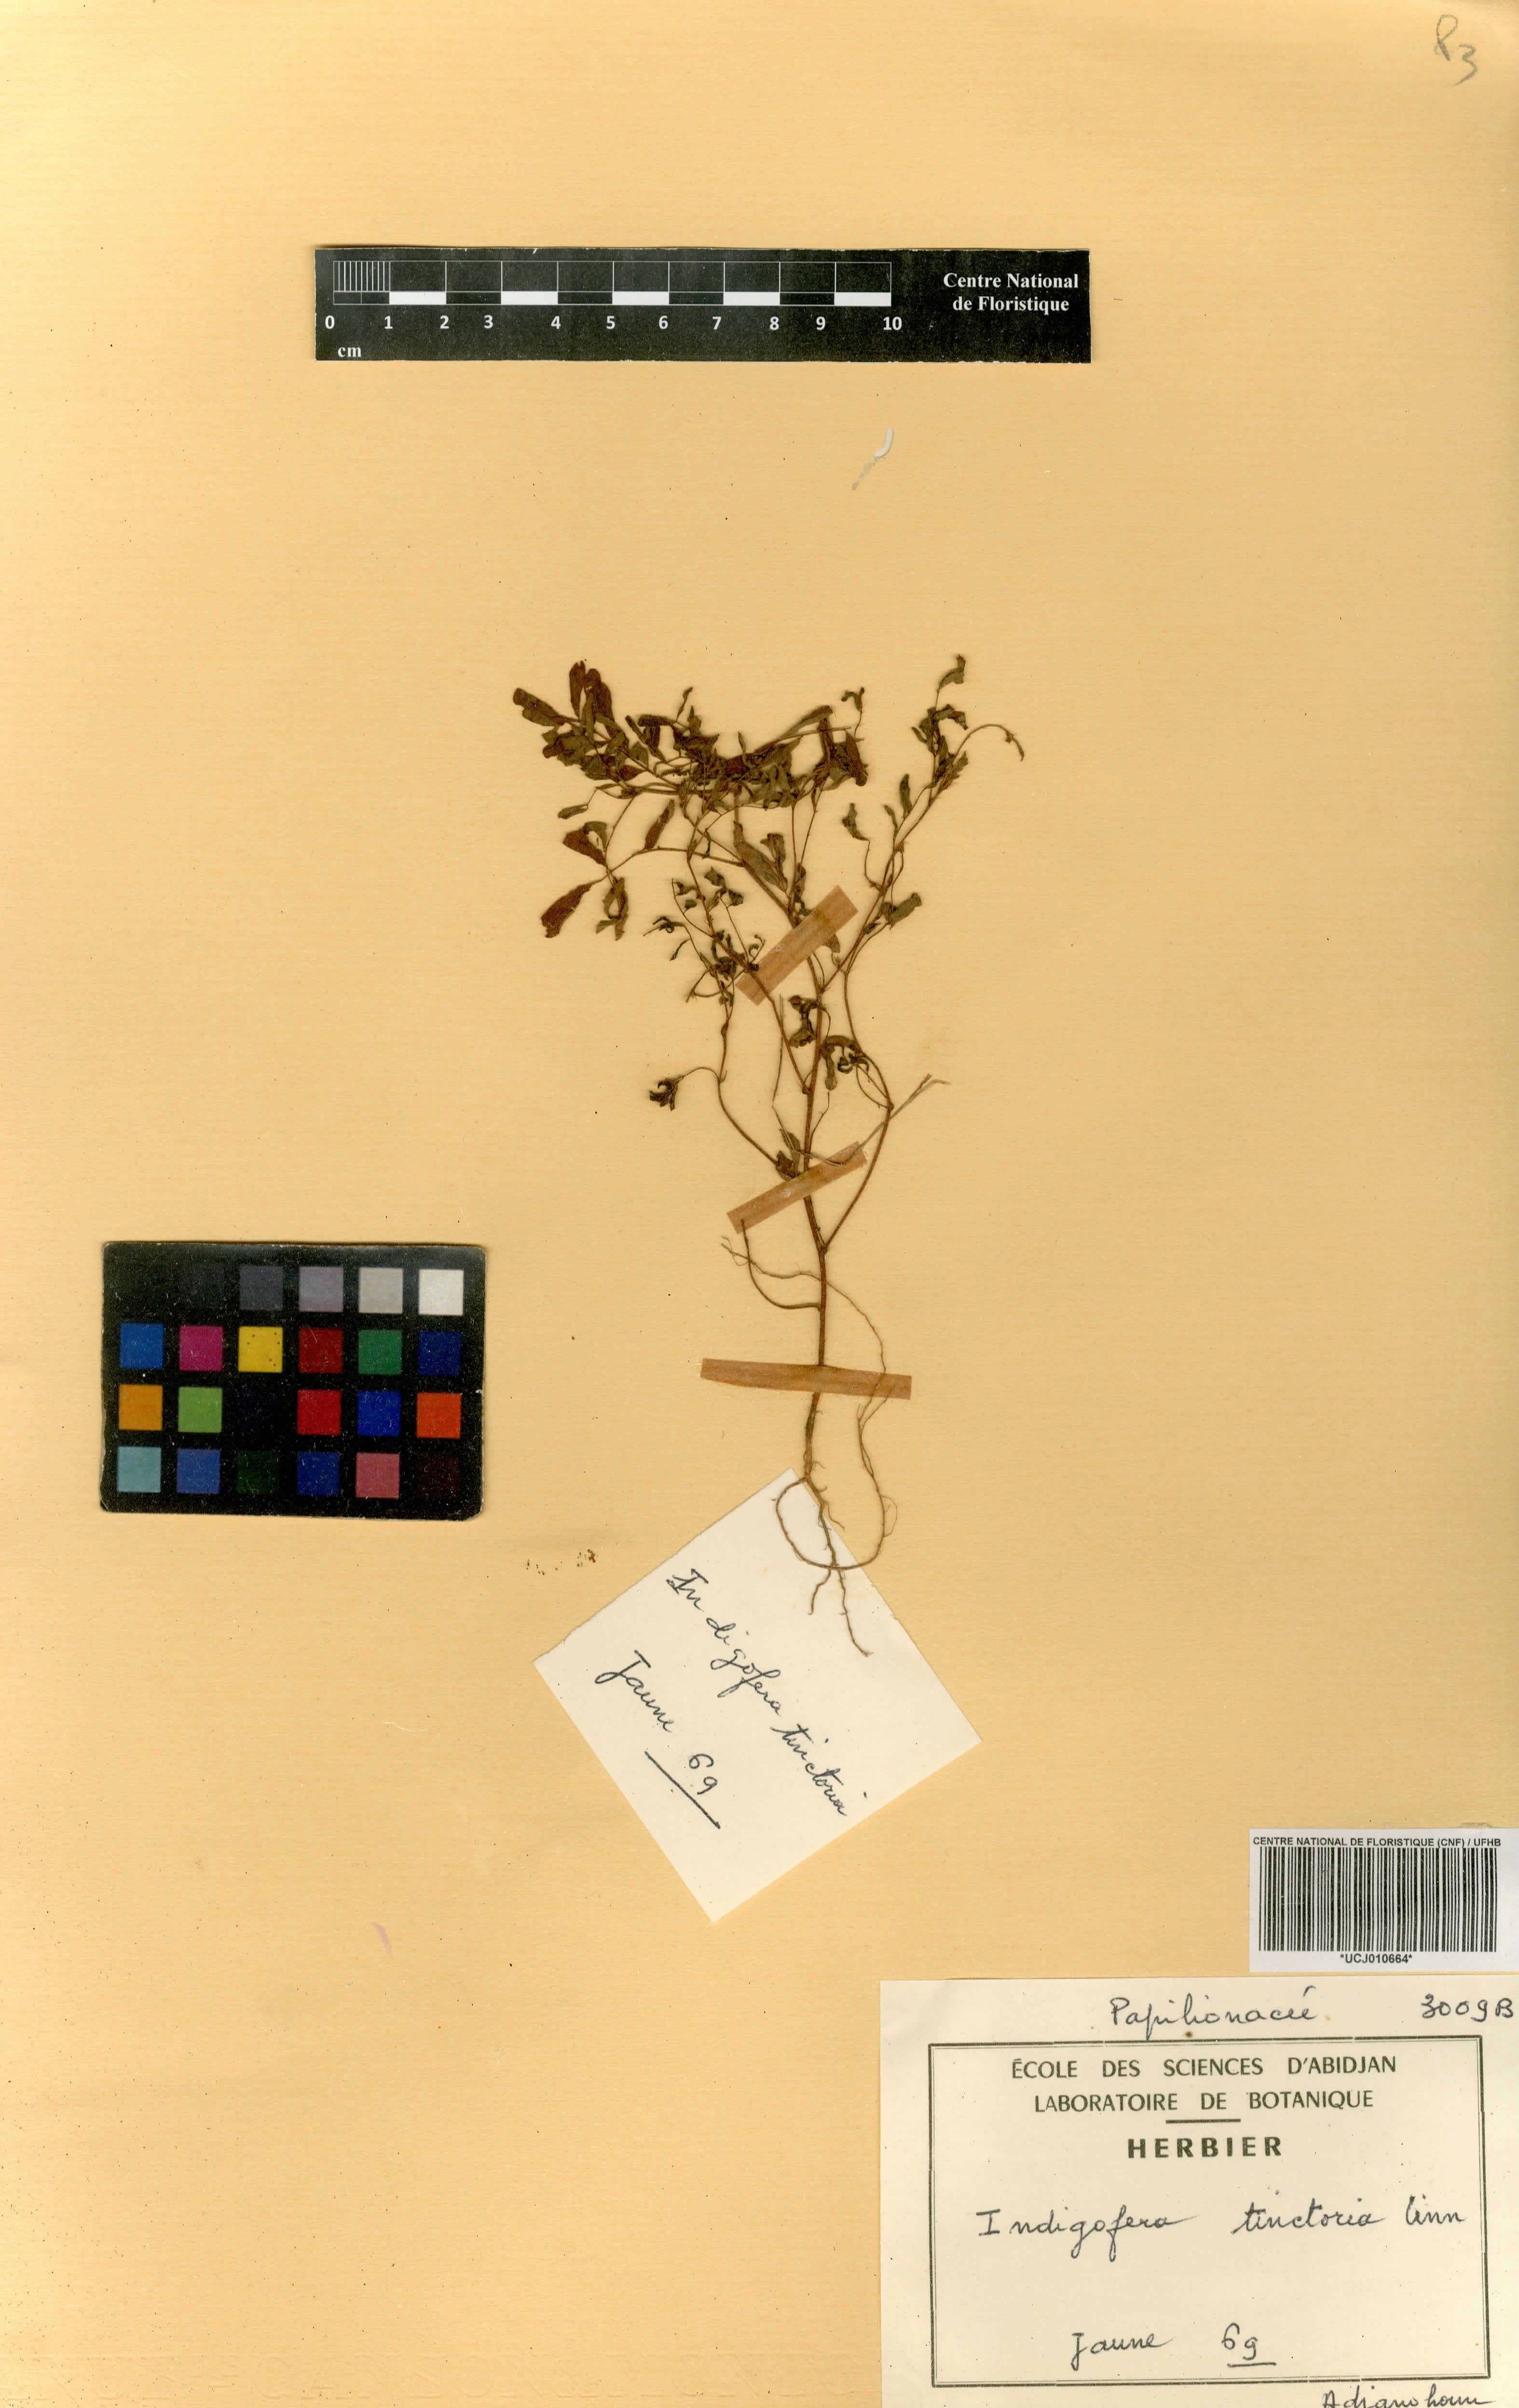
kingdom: Plantae
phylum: Tracheophyta
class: Magnoliopsida
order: Fabales
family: Fabaceae
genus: Indigofera
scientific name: Indigofera tinctoria
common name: True indigo
